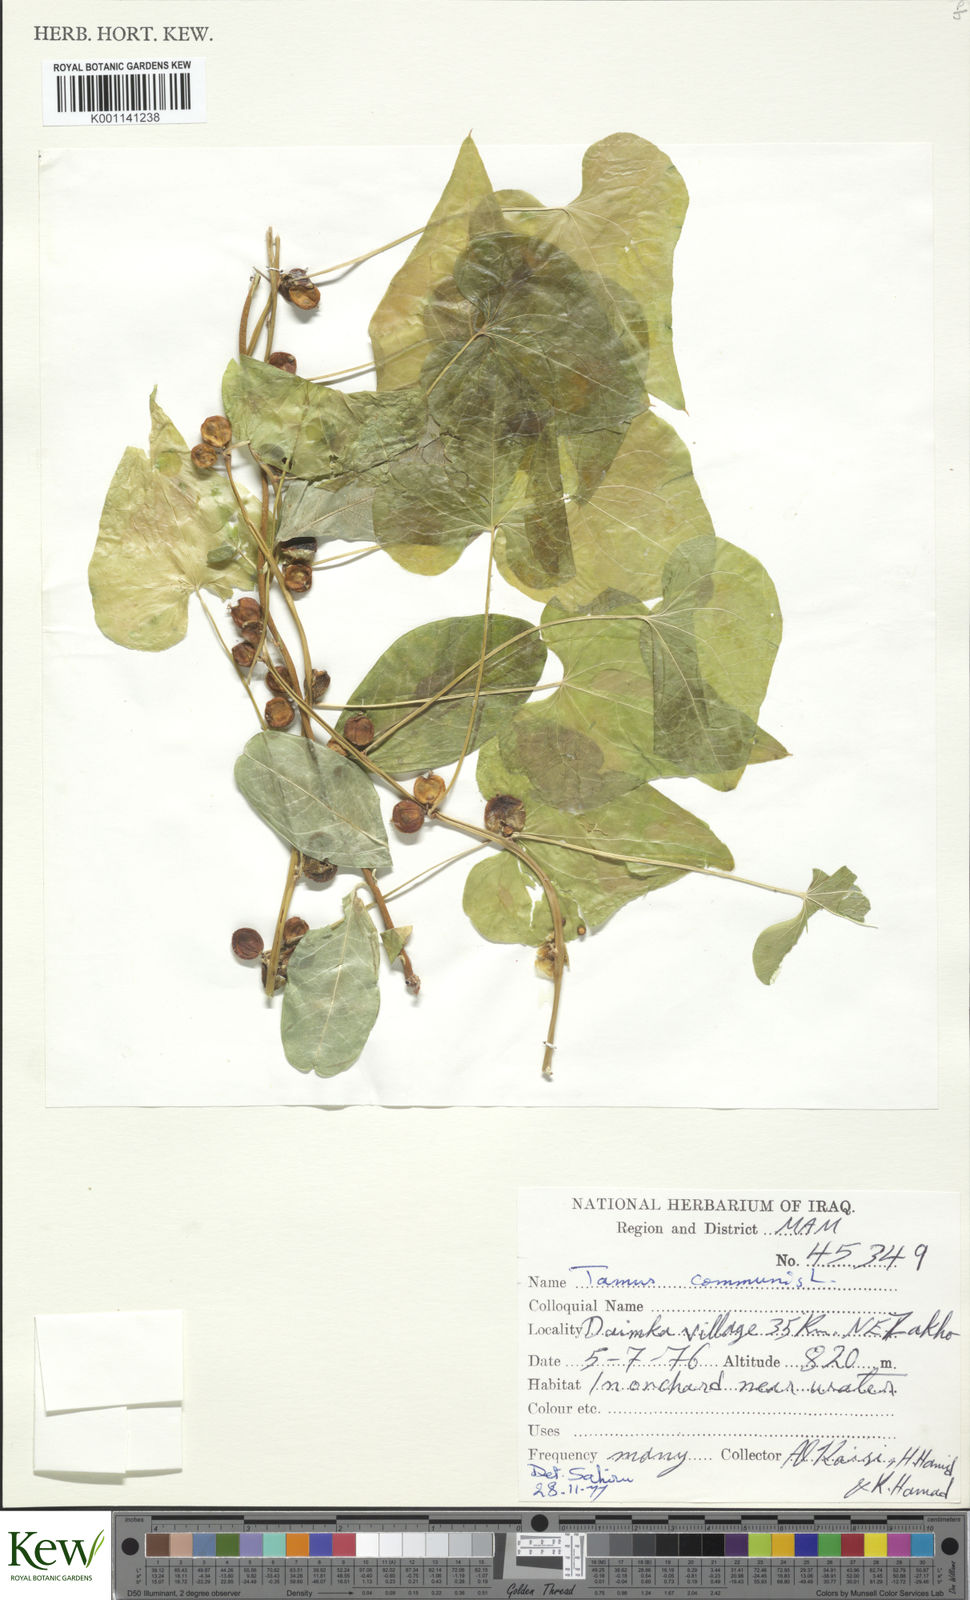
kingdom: Plantae
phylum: Tracheophyta
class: Liliopsida
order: Dioscoreales
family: Dioscoreaceae
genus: Dioscorea
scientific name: Dioscorea communis
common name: Black-bindweed
